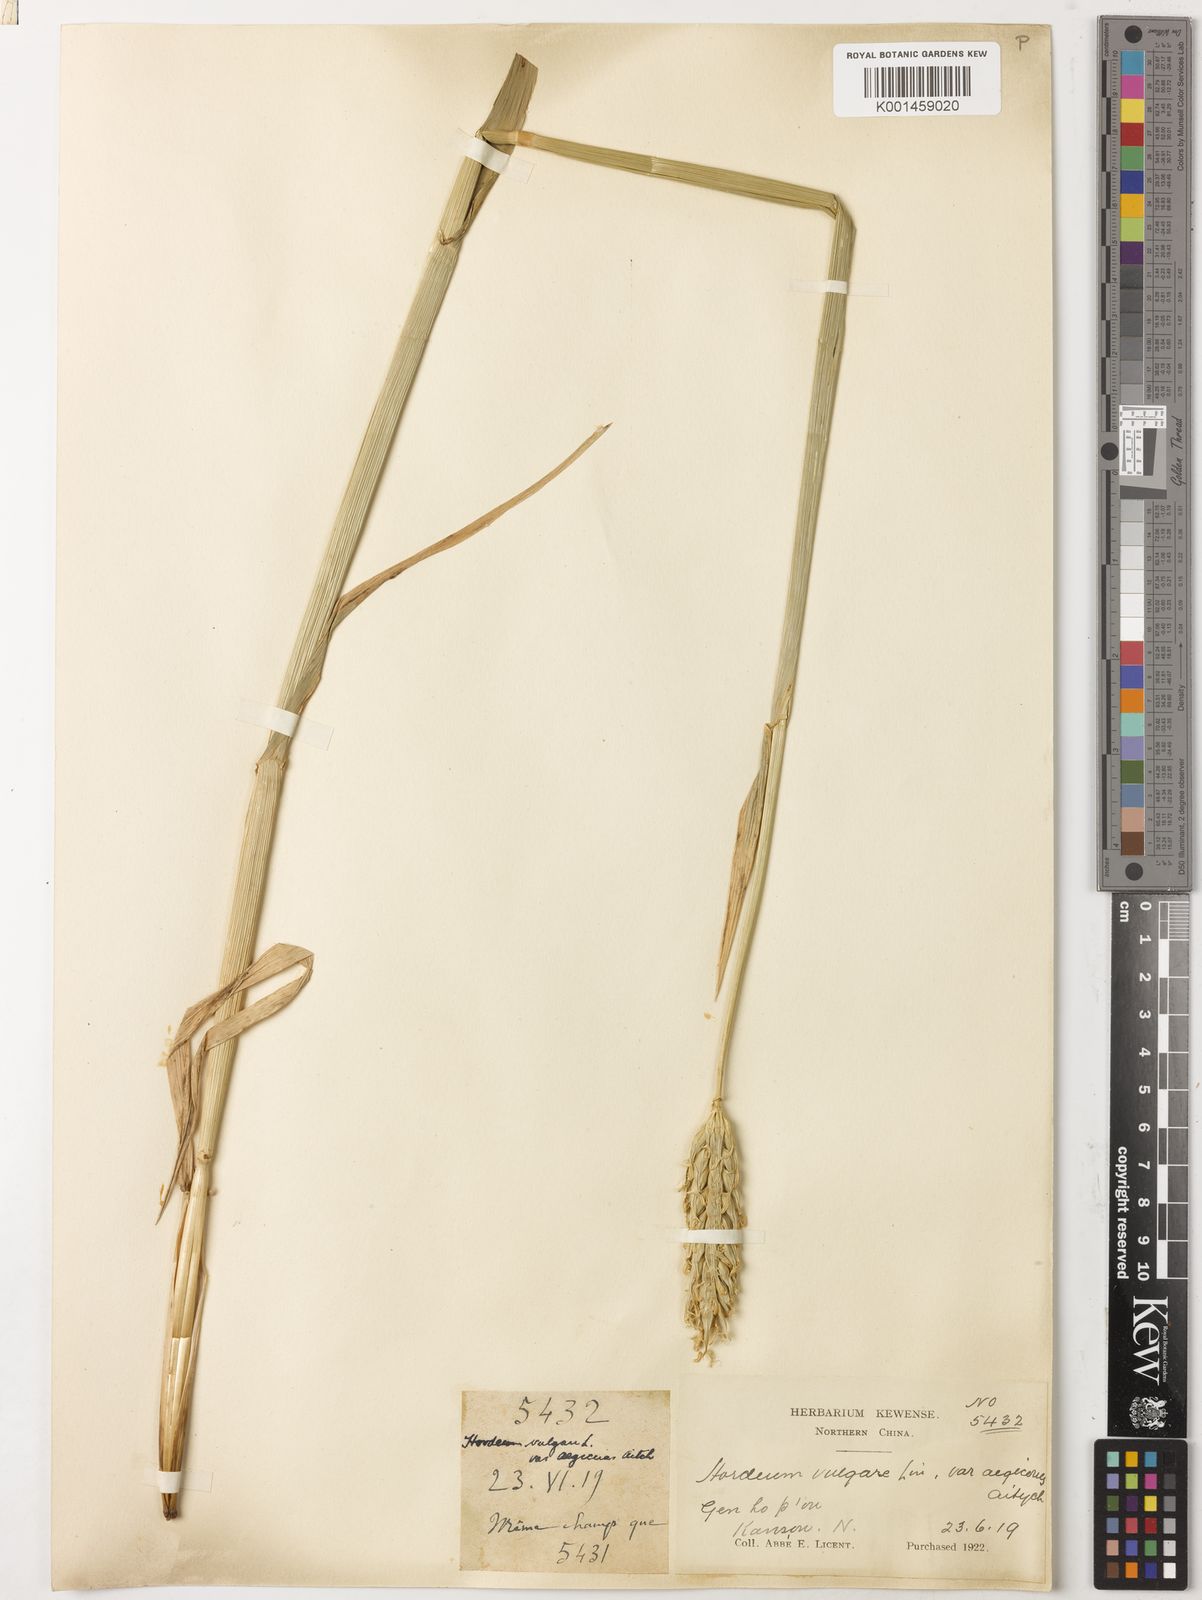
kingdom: Plantae
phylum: Tracheophyta
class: Liliopsida
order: Poales
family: Poaceae
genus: Hordeum
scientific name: Hordeum vulgare
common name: Common barley
